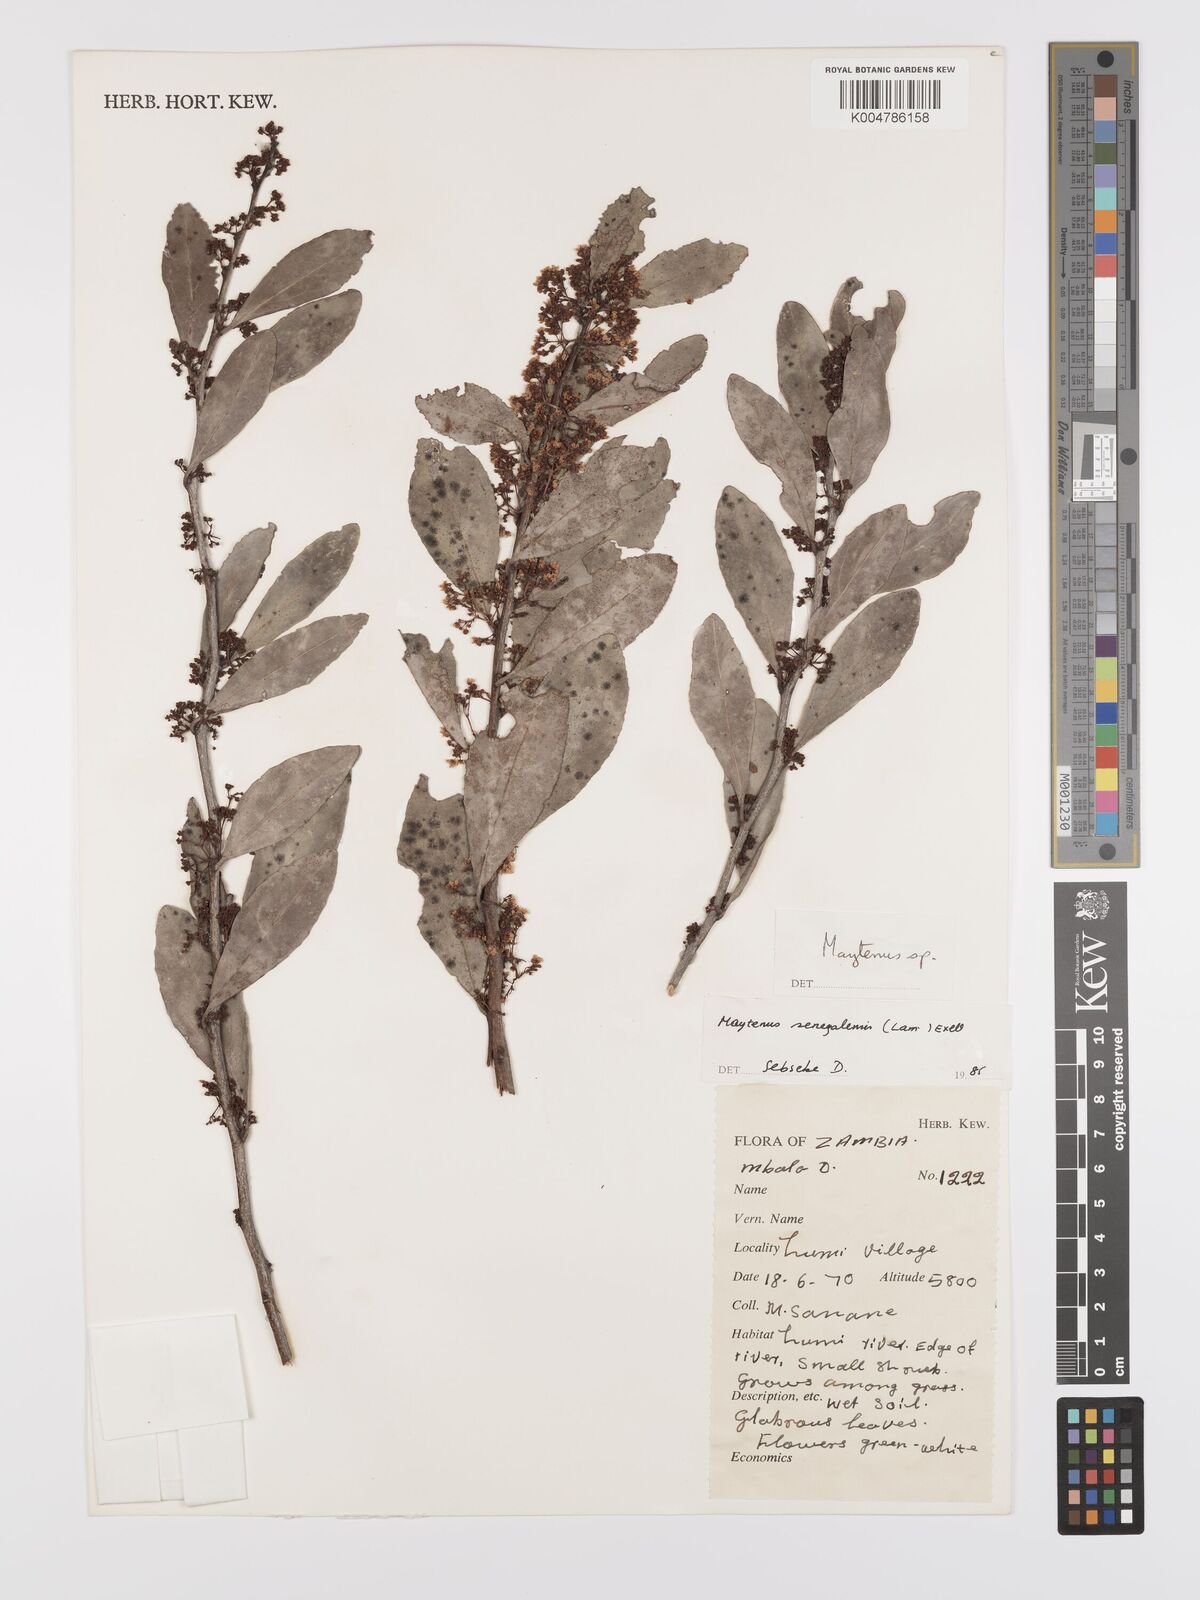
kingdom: Plantae
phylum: Tracheophyta
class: Magnoliopsida
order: Celastrales
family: Celastraceae
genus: Gymnosporia
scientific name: Gymnosporia senegalensis
